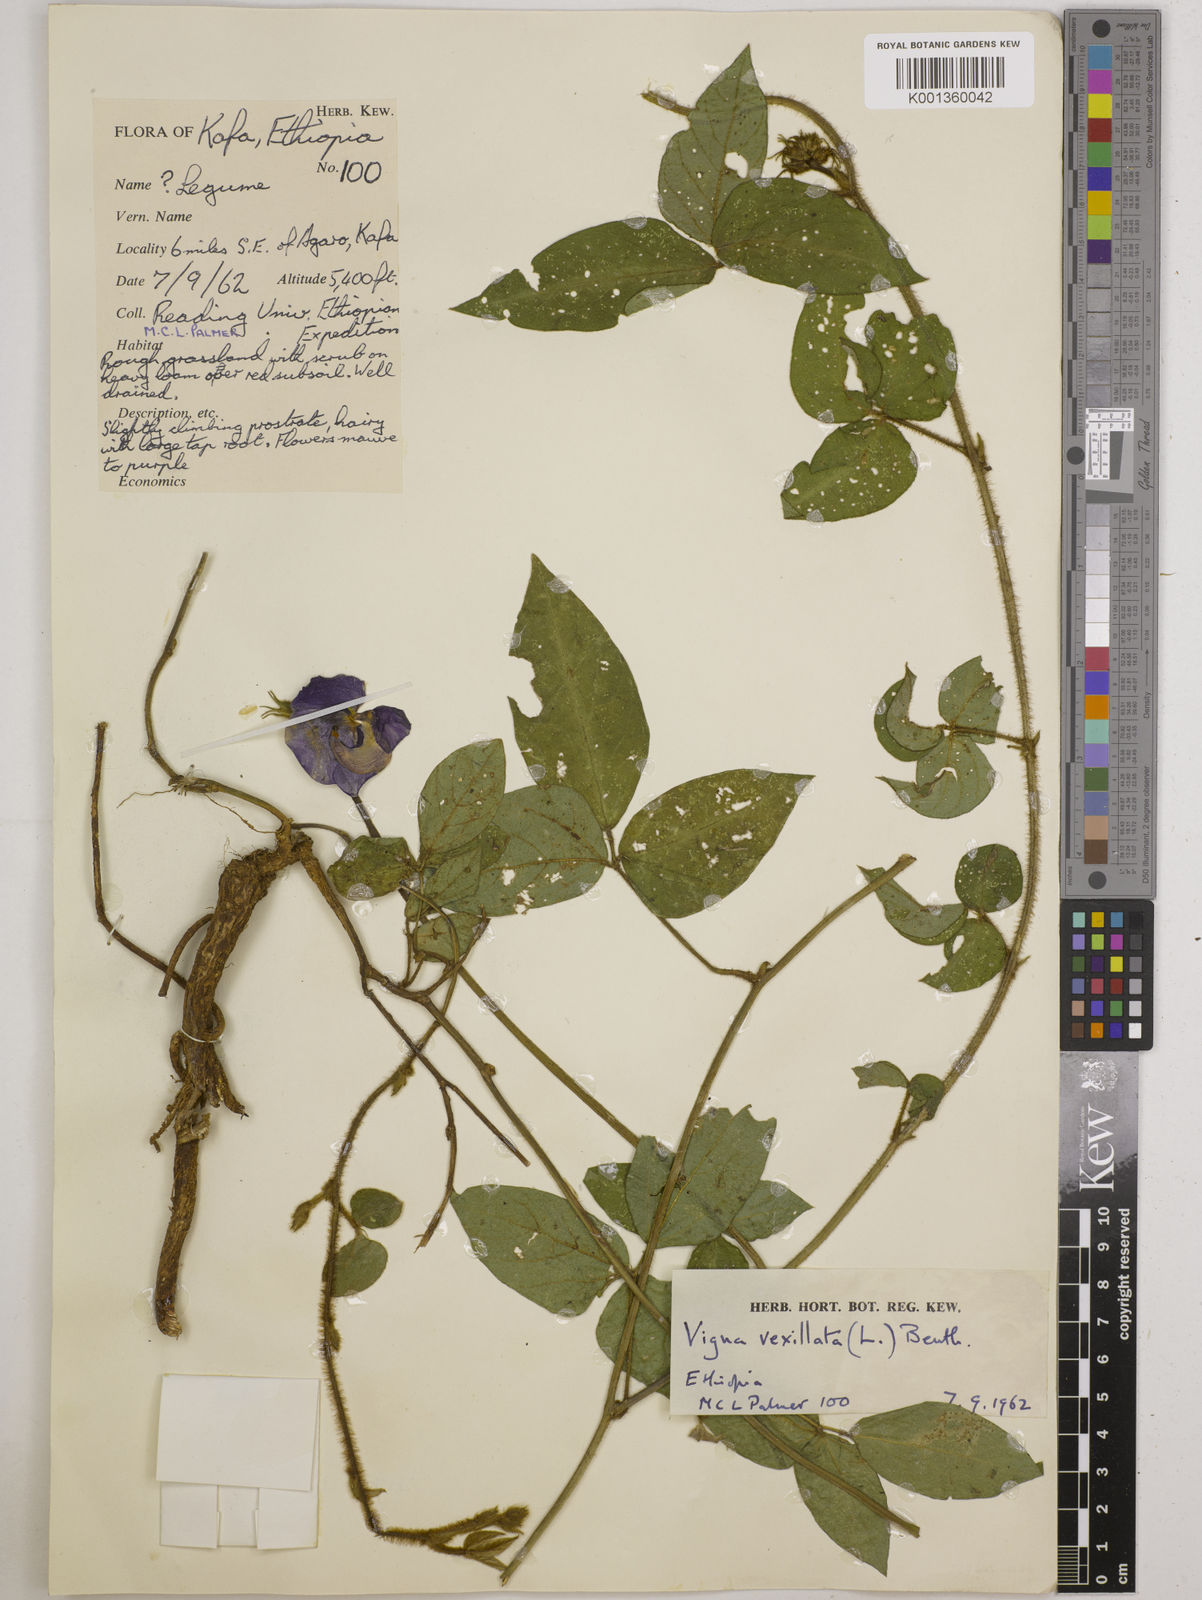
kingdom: Plantae
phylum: Tracheophyta
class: Magnoliopsida
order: Fabales
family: Fabaceae
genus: Vigna
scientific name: Vigna vexillata
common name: Zombi pea
